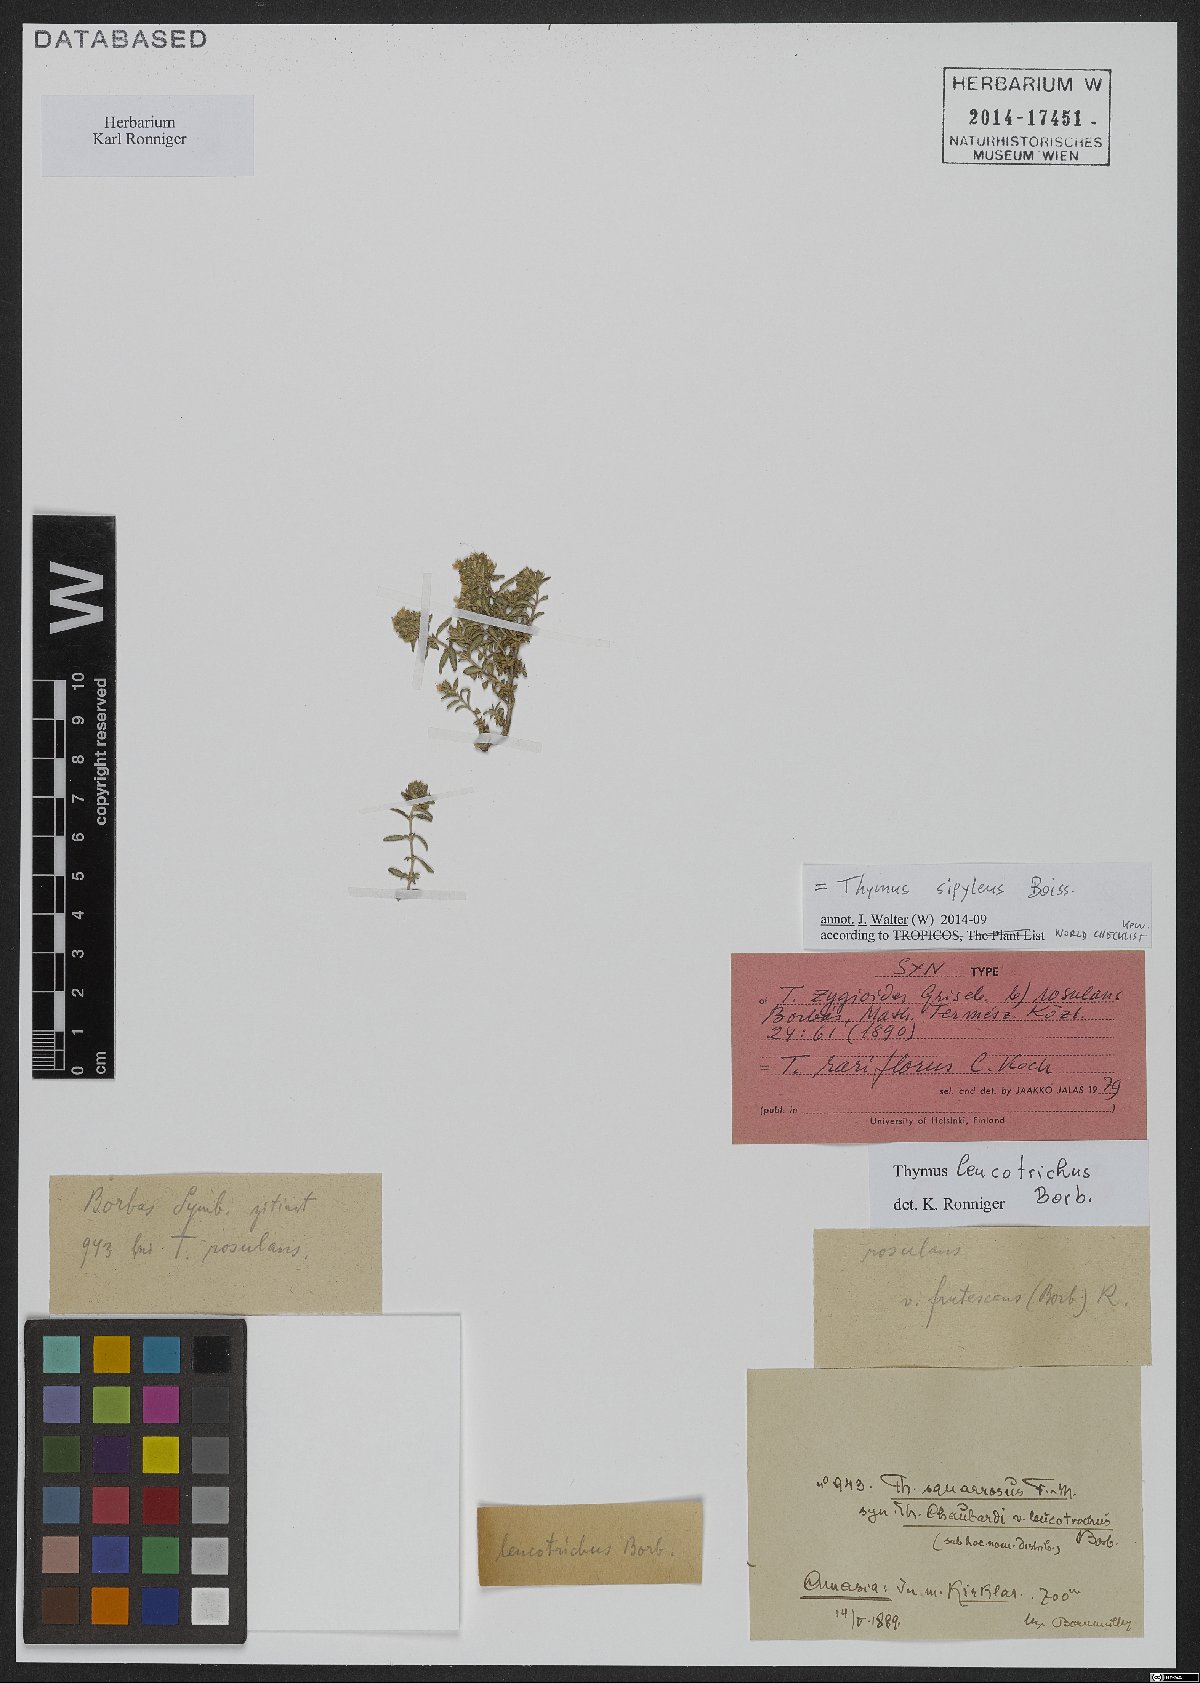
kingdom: Plantae
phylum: Tracheophyta
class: Magnoliopsida
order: Lamiales
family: Lamiaceae
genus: Thymus
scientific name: Thymus sipyleus
